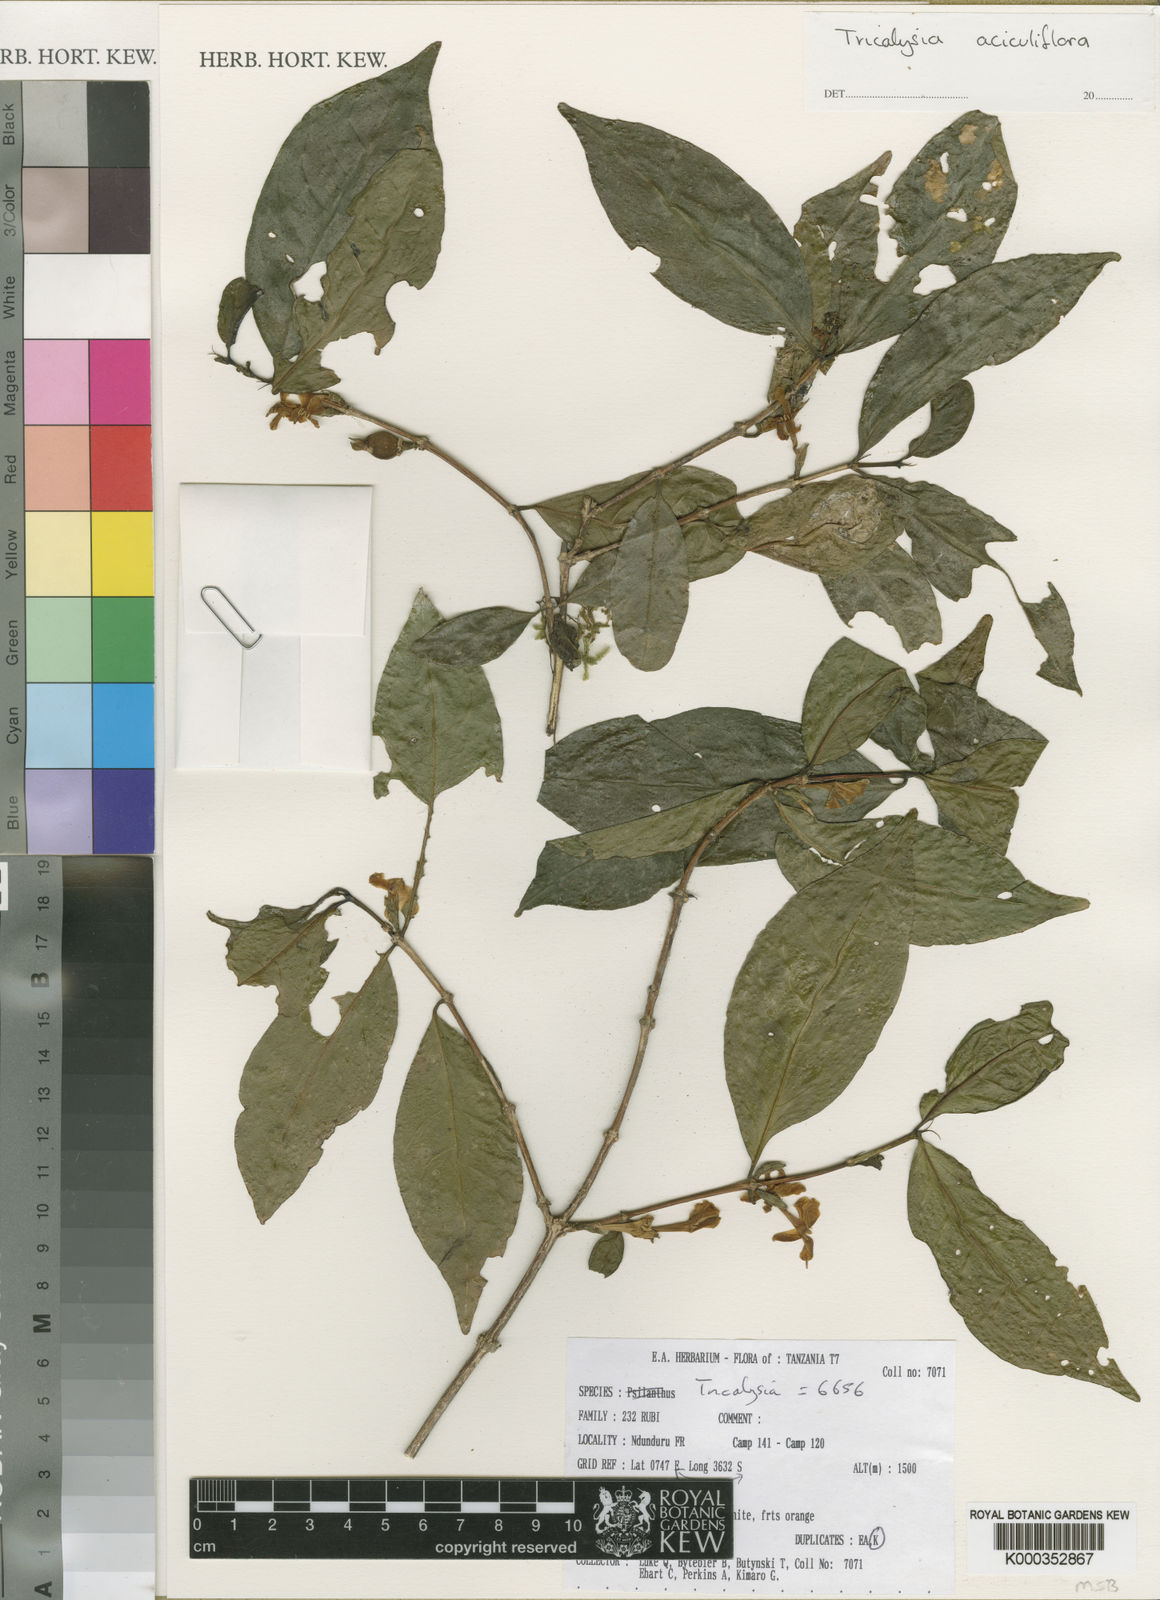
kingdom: Plantae
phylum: Tracheophyta
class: Magnoliopsida
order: Gentianales
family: Rubiaceae
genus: Tricalysia
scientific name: Tricalysia aciculiflora
